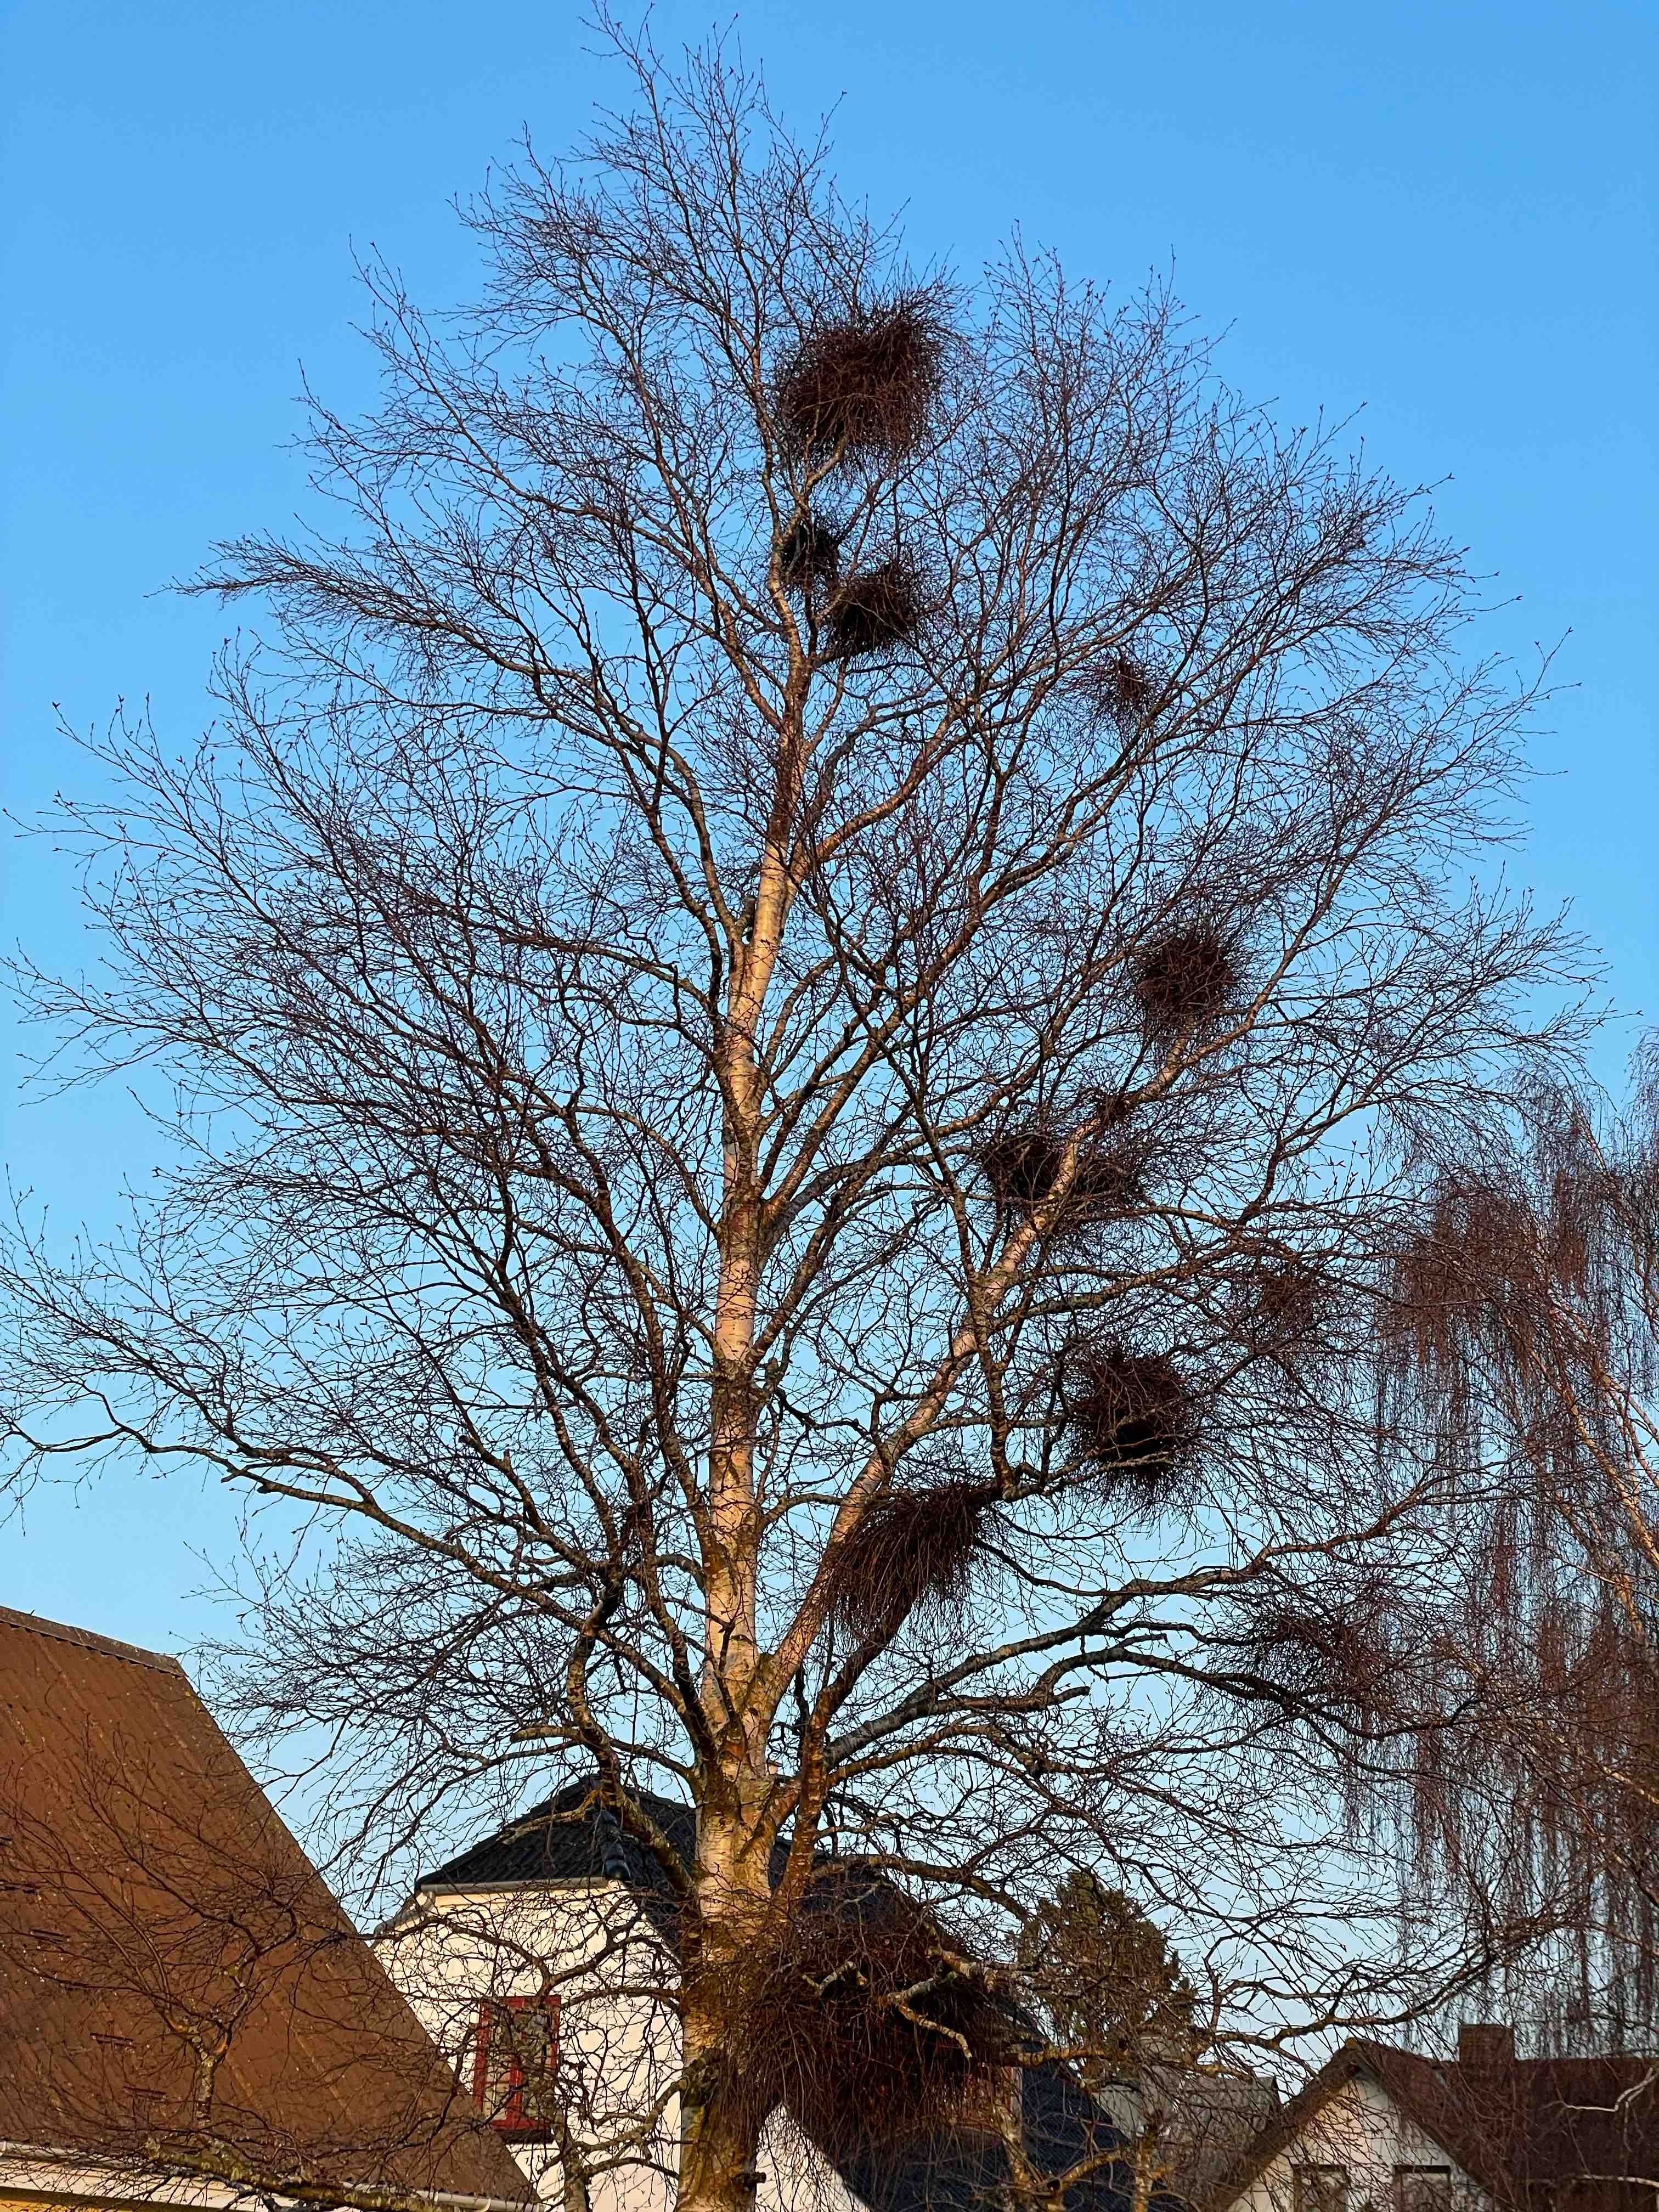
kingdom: Fungi
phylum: Ascomycota
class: Taphrinomycetes
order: Taphrinales
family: Taphrinaceae
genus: Taphrina
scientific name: Taphrina betulina
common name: hekse-sækdug
